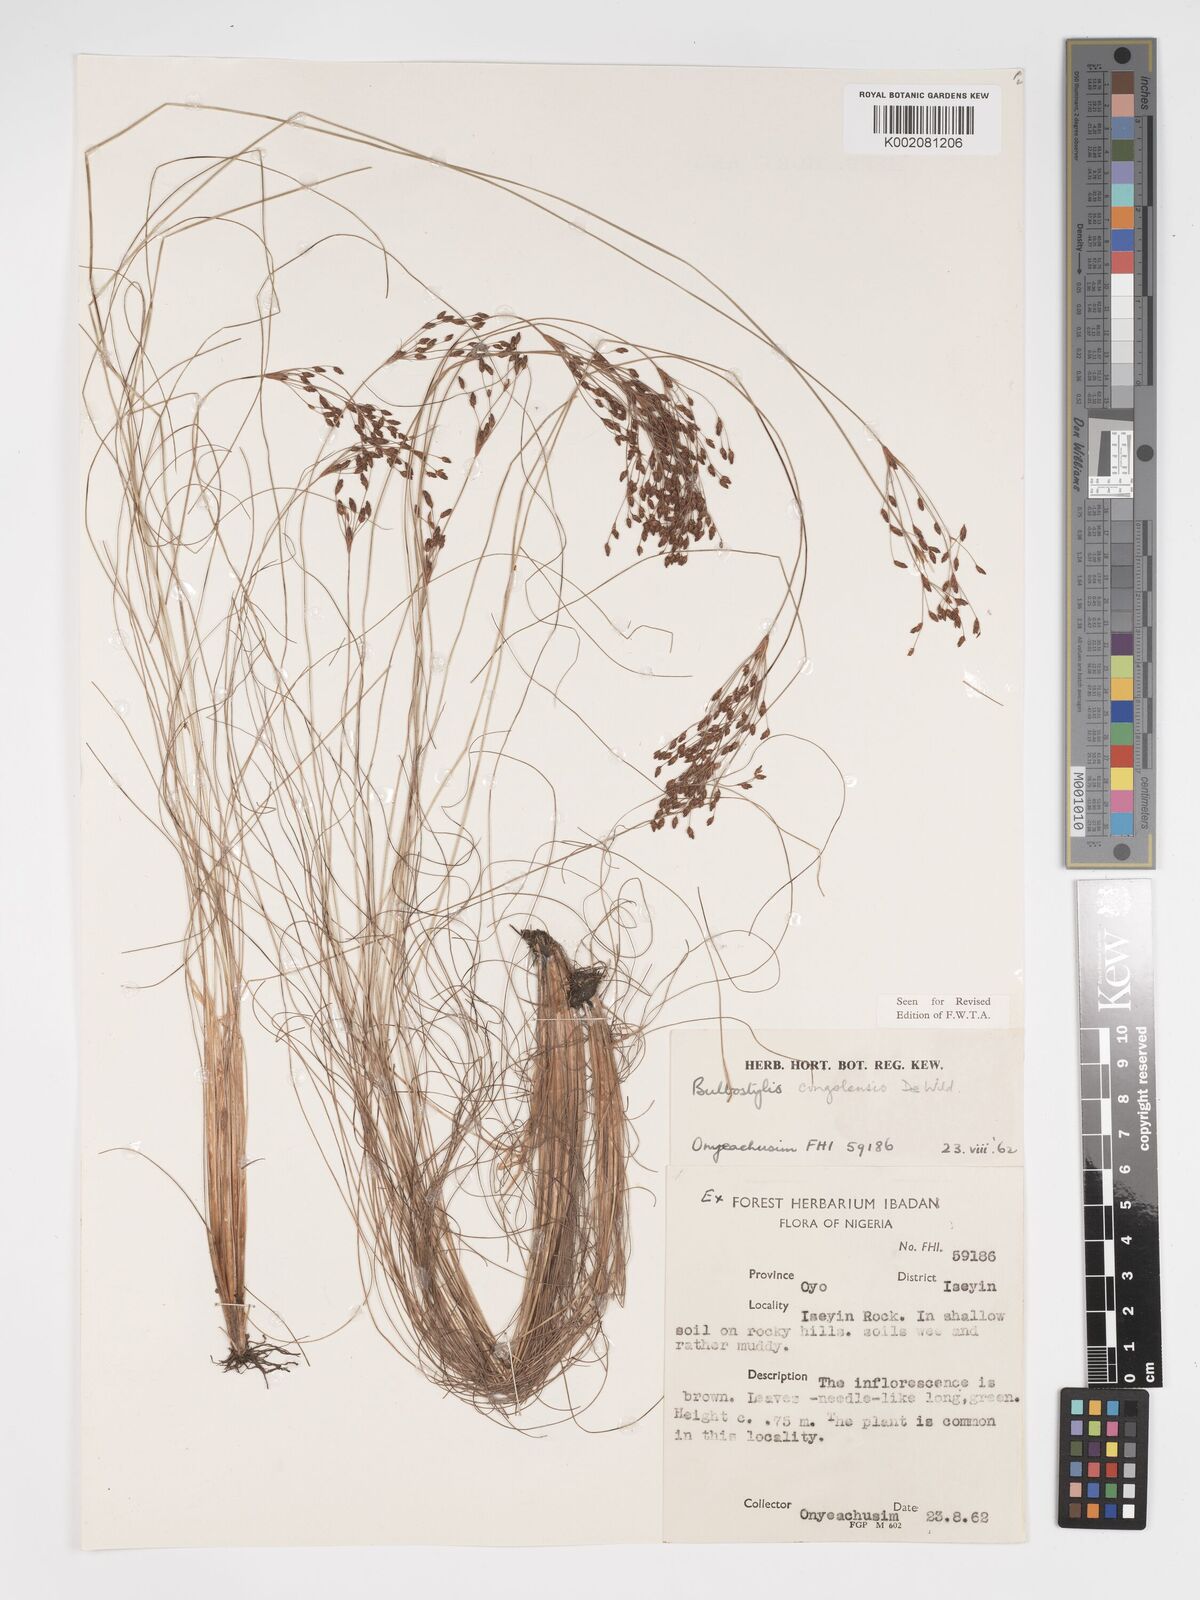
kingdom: Plantae
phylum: Tracheophyta
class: Liliopsida
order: Poales
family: Cyperaceae
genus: Bulbostylis
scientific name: Bulbostylis congolensis
